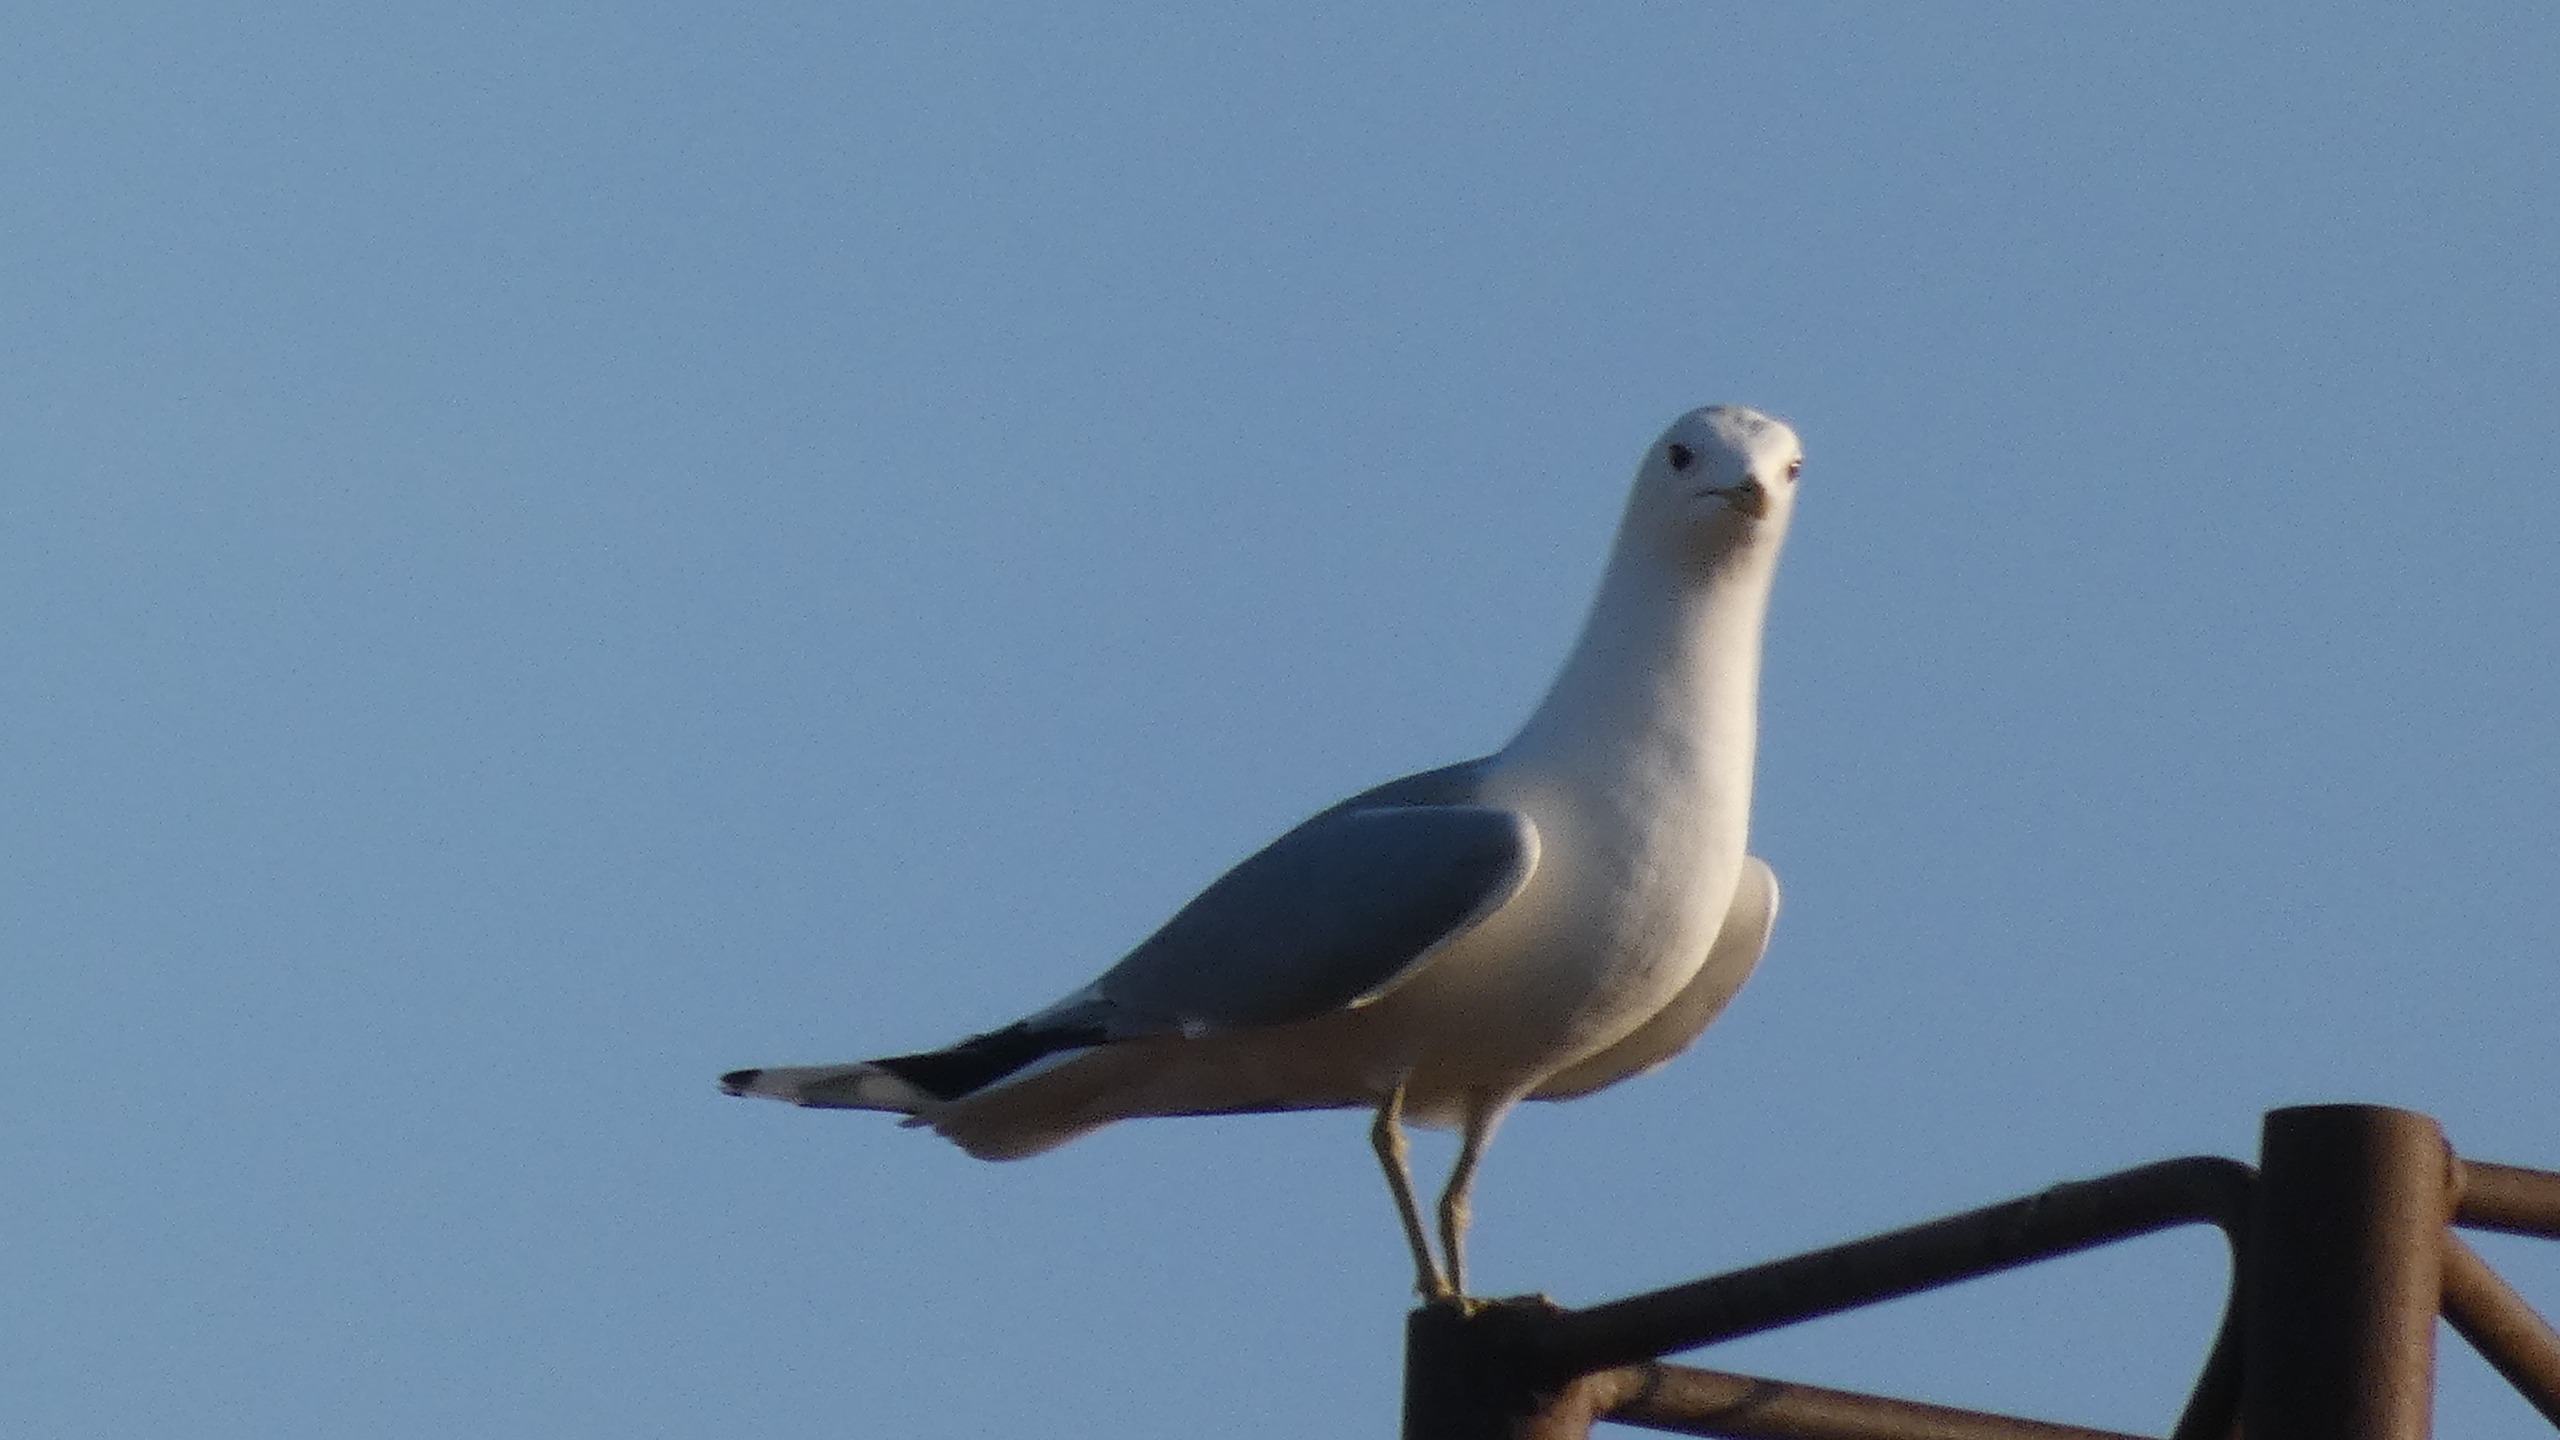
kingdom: Animalia
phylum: Chordata
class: Aves
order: Charadriiformes
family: Laridae
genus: Larus
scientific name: Larus canus
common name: Stormmåge
